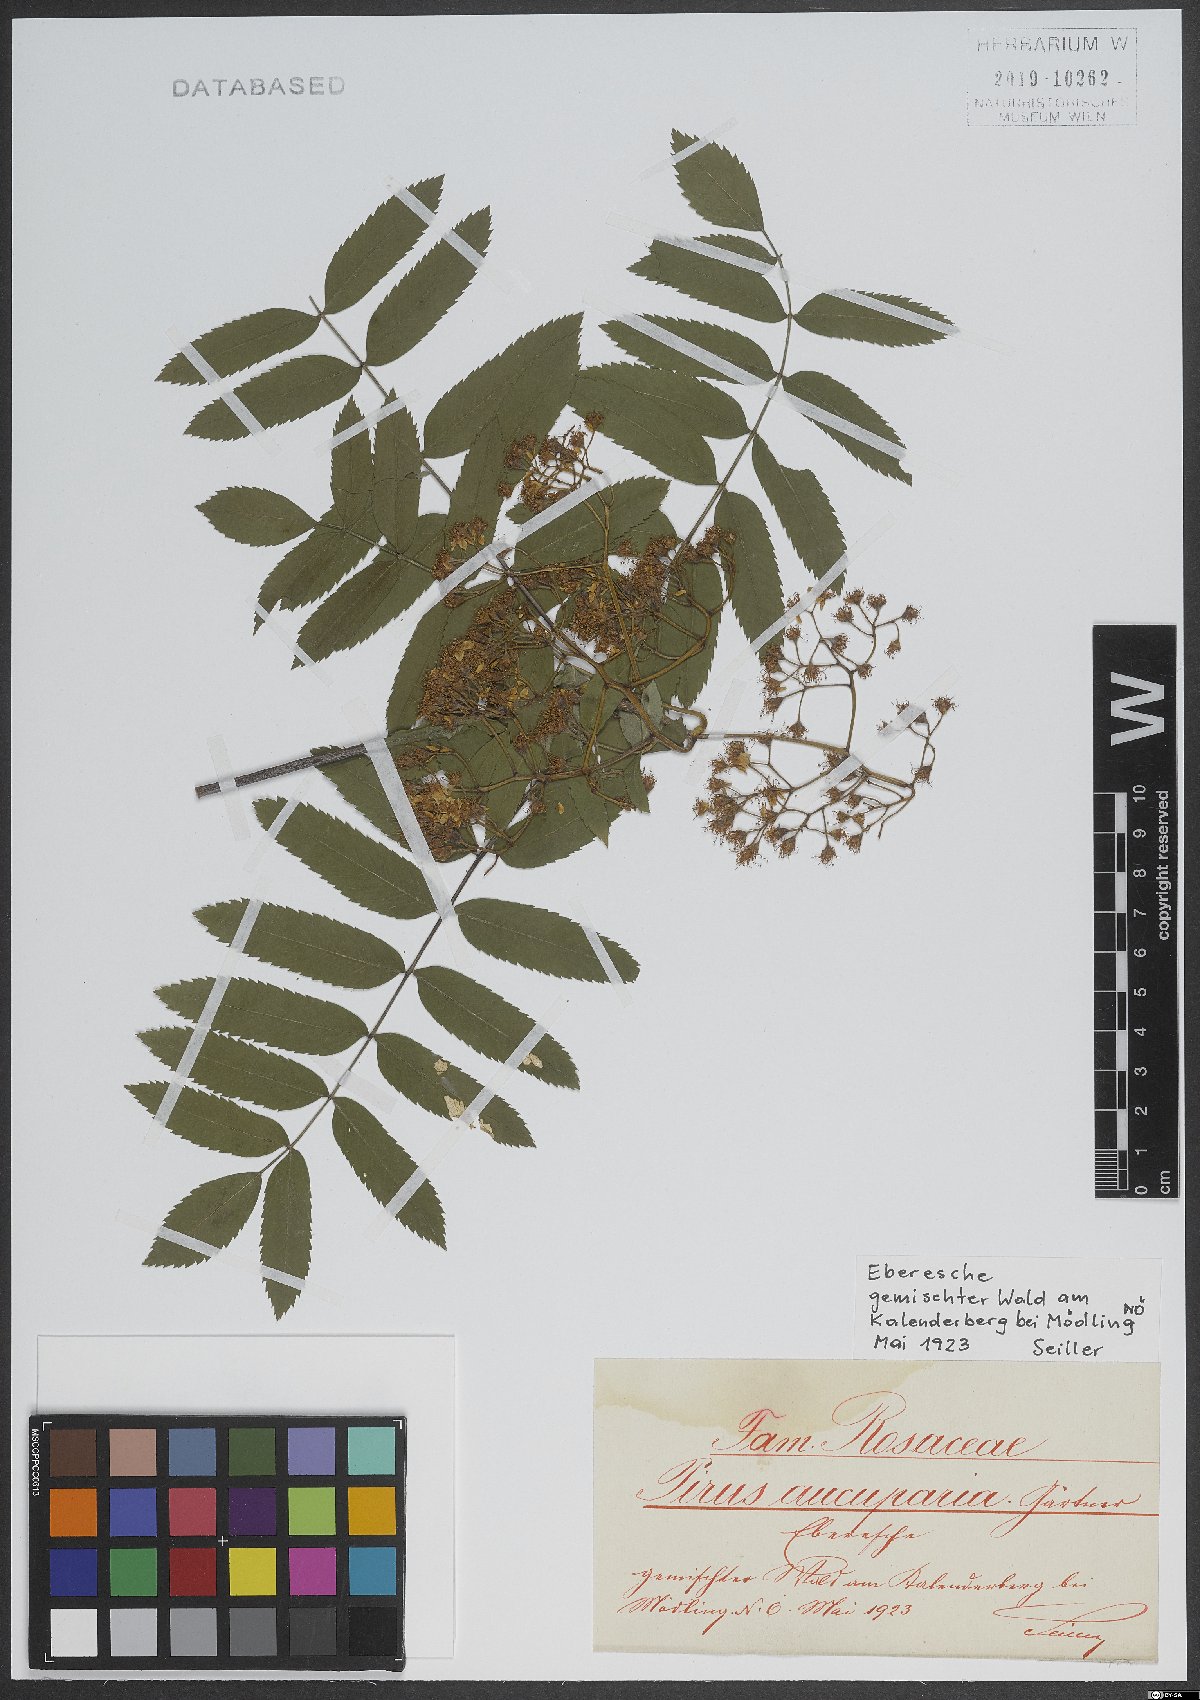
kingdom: Plantae
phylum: Tracheophyta
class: Magnoliopsida
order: Rosales
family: Rosaceae
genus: Sorbus
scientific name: Sorbus aucuparia
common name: Rowan
